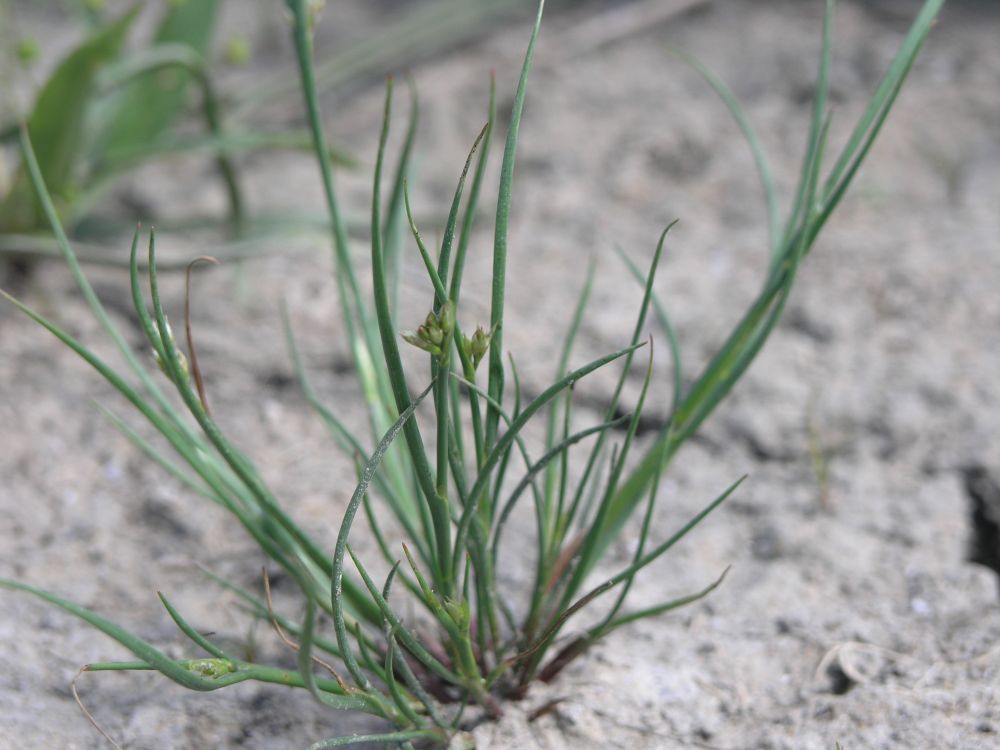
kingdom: Plantae
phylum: Tracheophyta
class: Liliopsida
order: Poales
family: Cyperaceae
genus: Schoenoplectiella
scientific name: Schoenoplectiella supina
